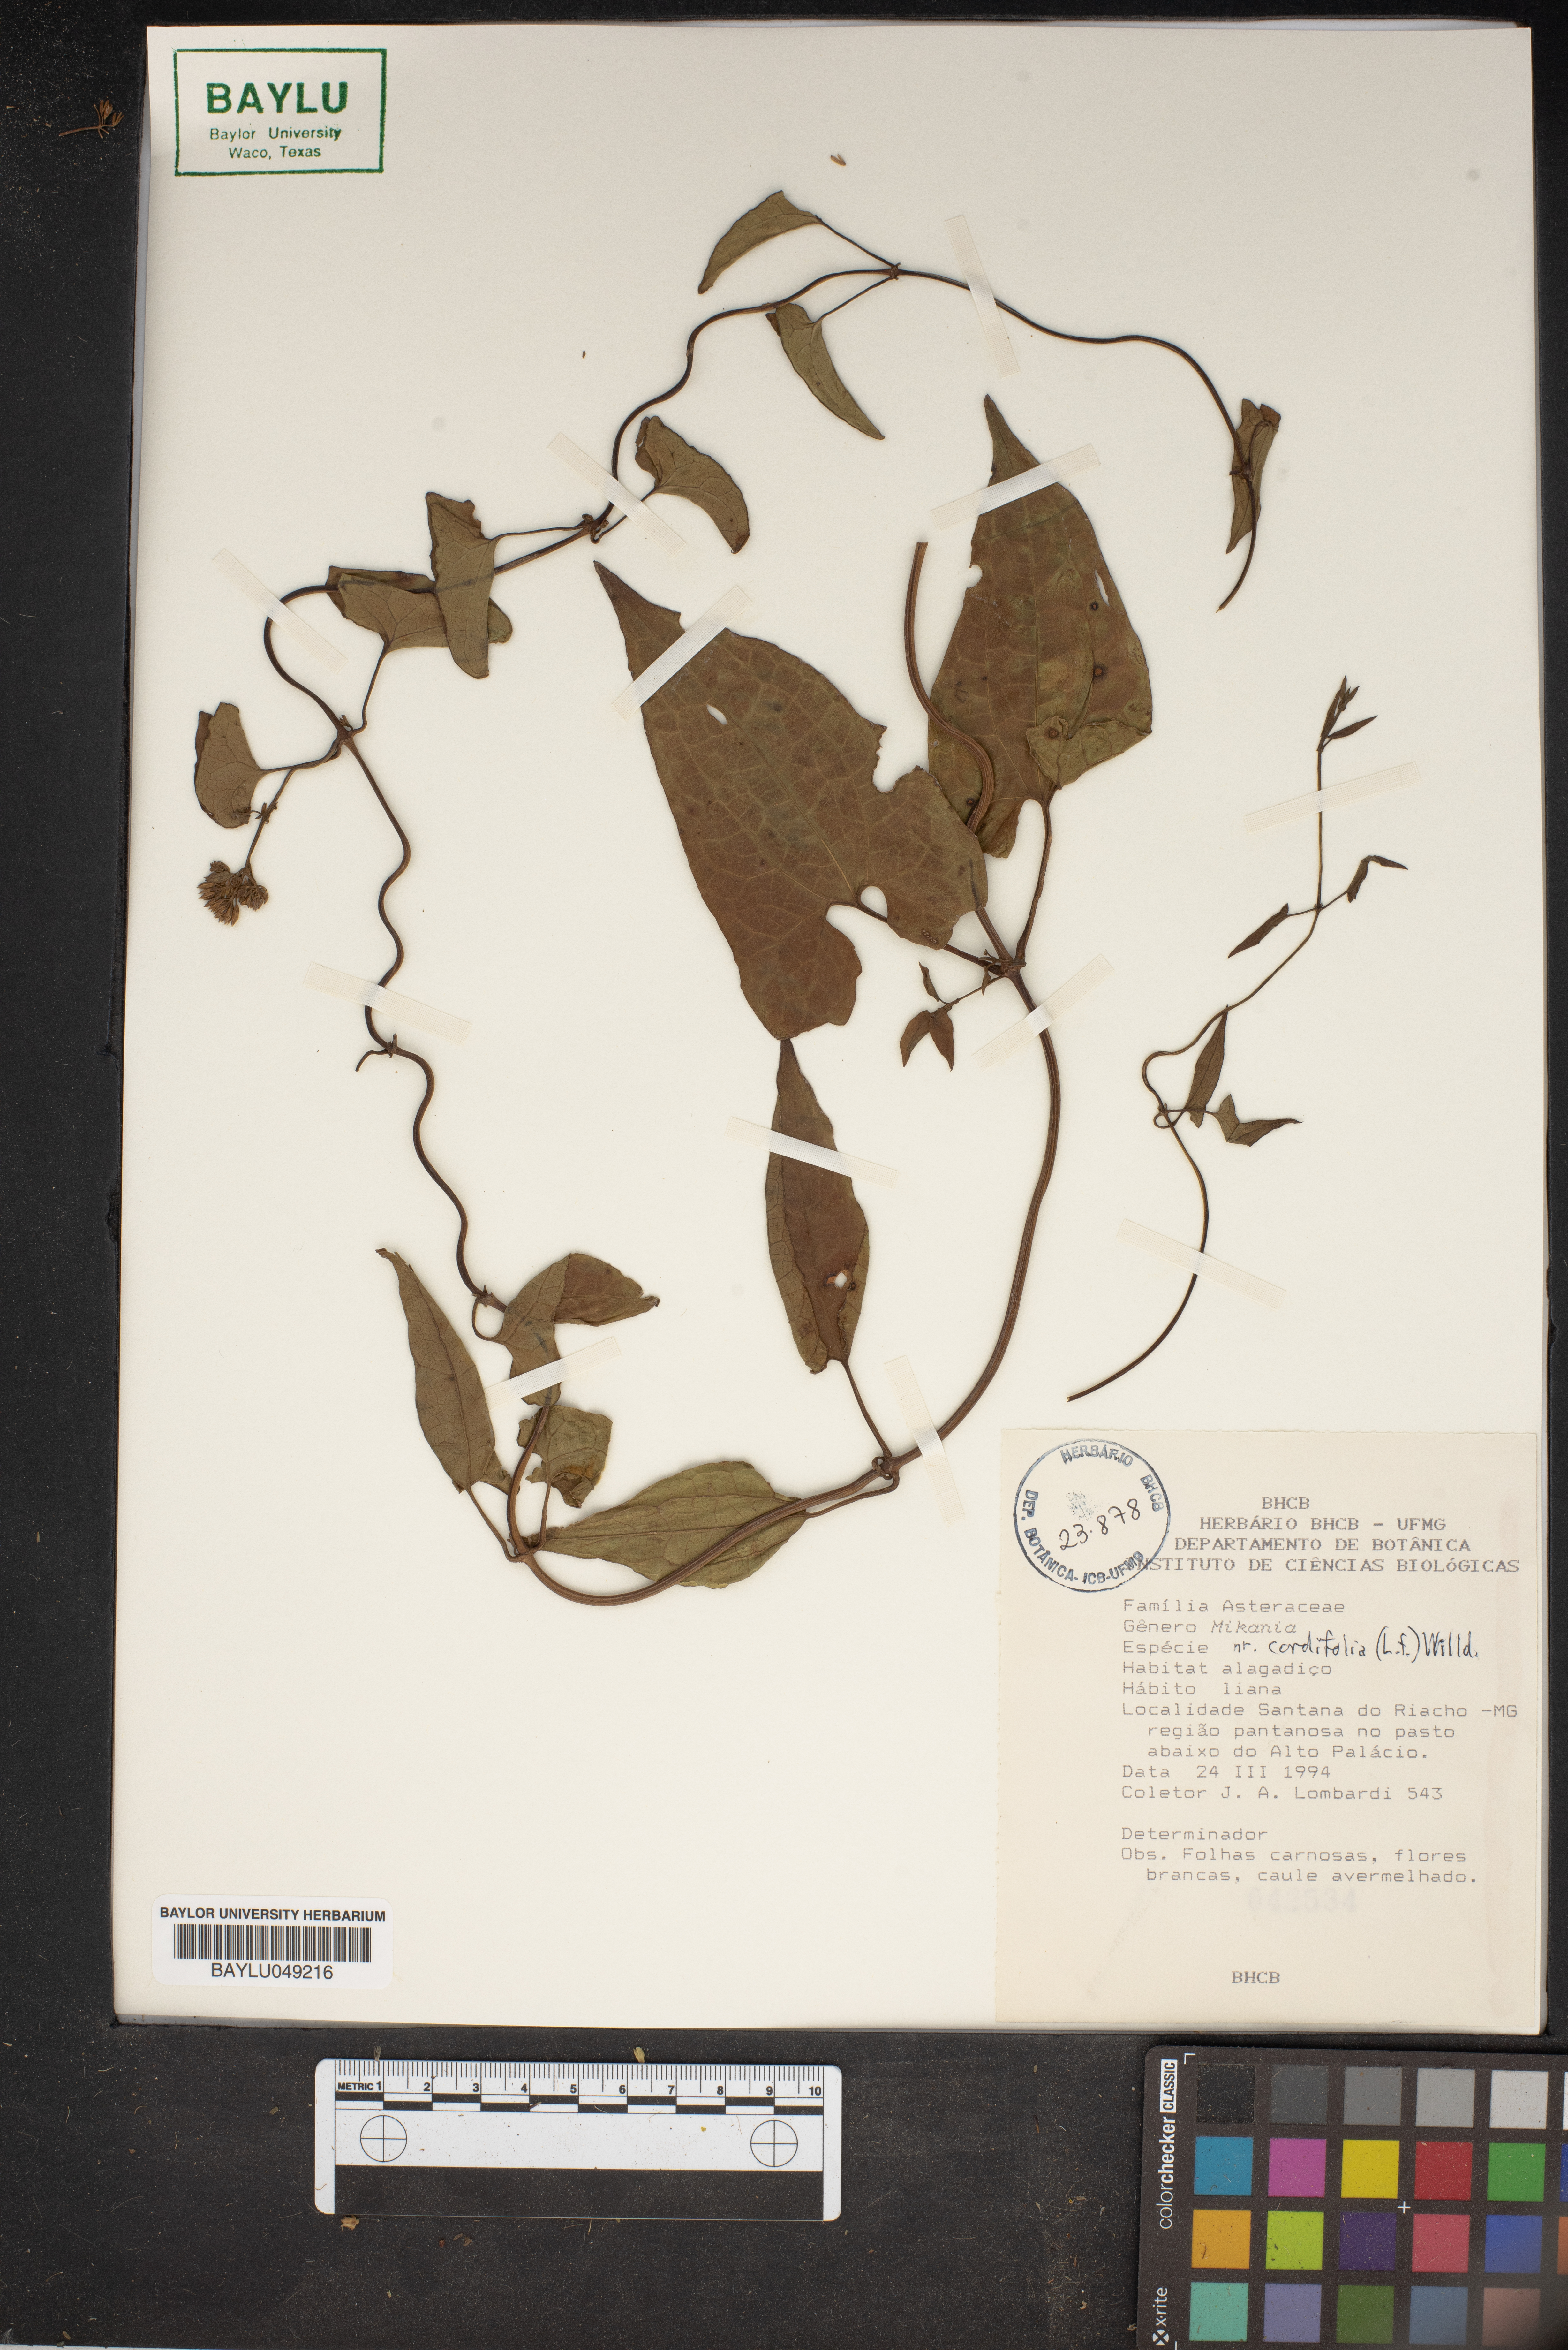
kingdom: Plantae
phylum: Tracheophyta
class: Magnoliopsida
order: Asterales
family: Asteraceae
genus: Mikania
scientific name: Mikania cordifolia
